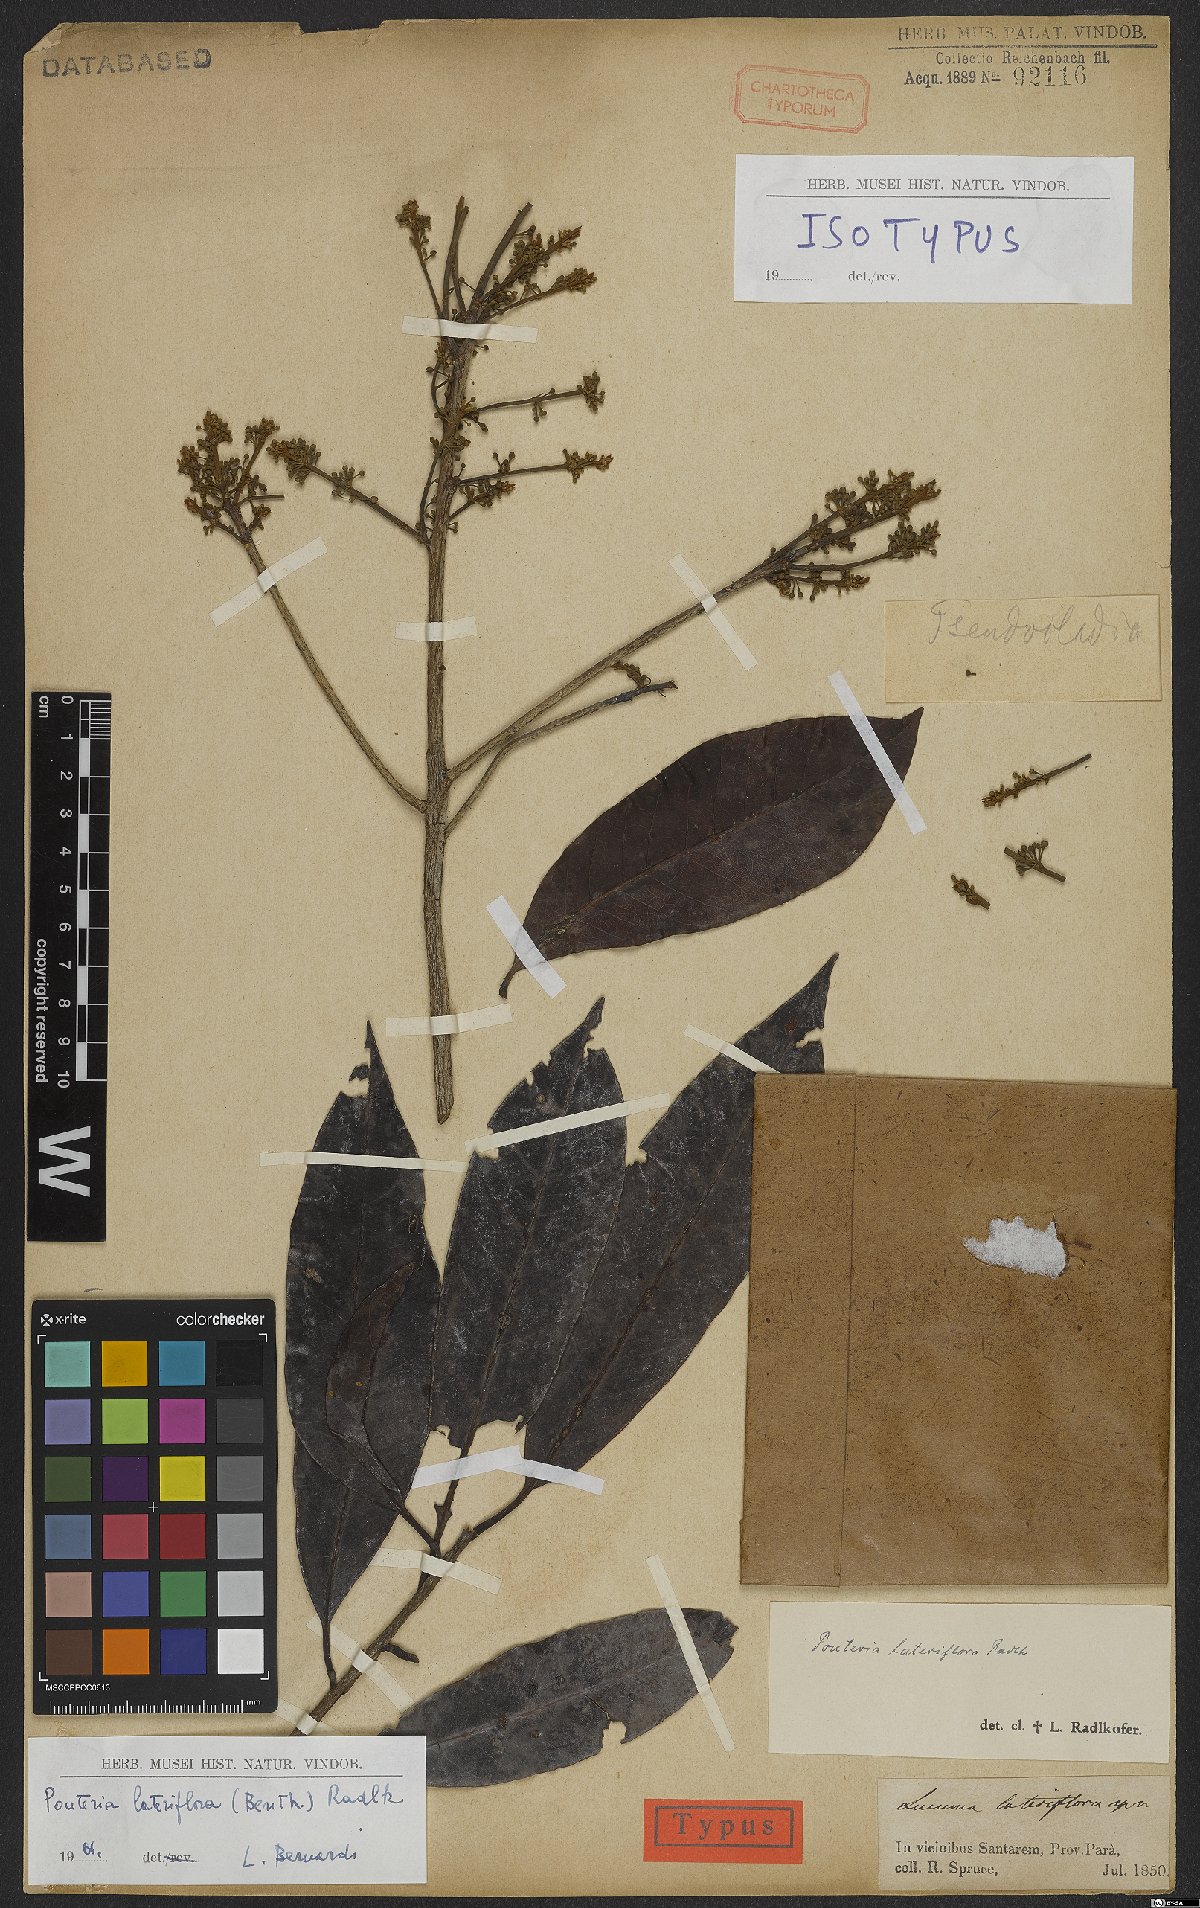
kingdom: Plantae
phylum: Tracheophyta
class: Magnoliopsida
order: Ericales
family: Sapotaceae
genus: Pouteria
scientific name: Pouteria ramiflora
